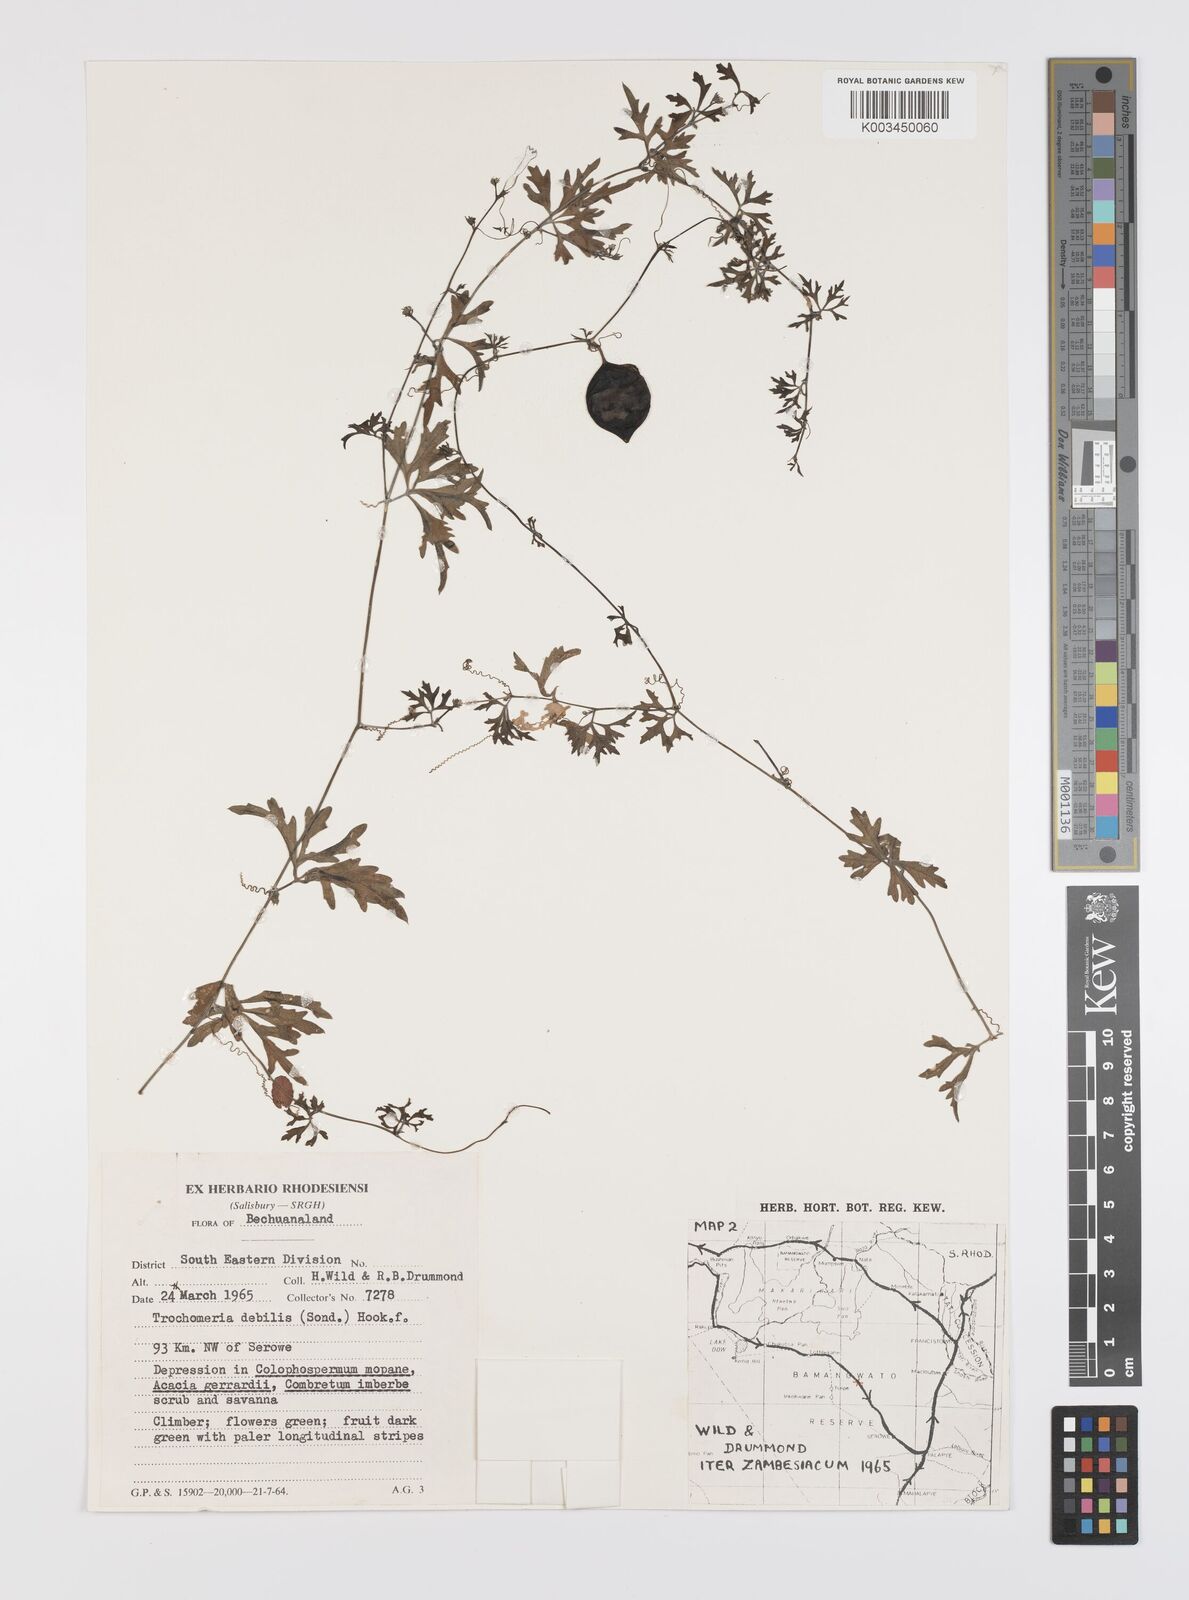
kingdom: Plantae
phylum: Tracheophyta
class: Magnoliopsida
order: Cucurbitales
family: Cucurbitaceae
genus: Trochomeria
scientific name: Trochomeria debilis
